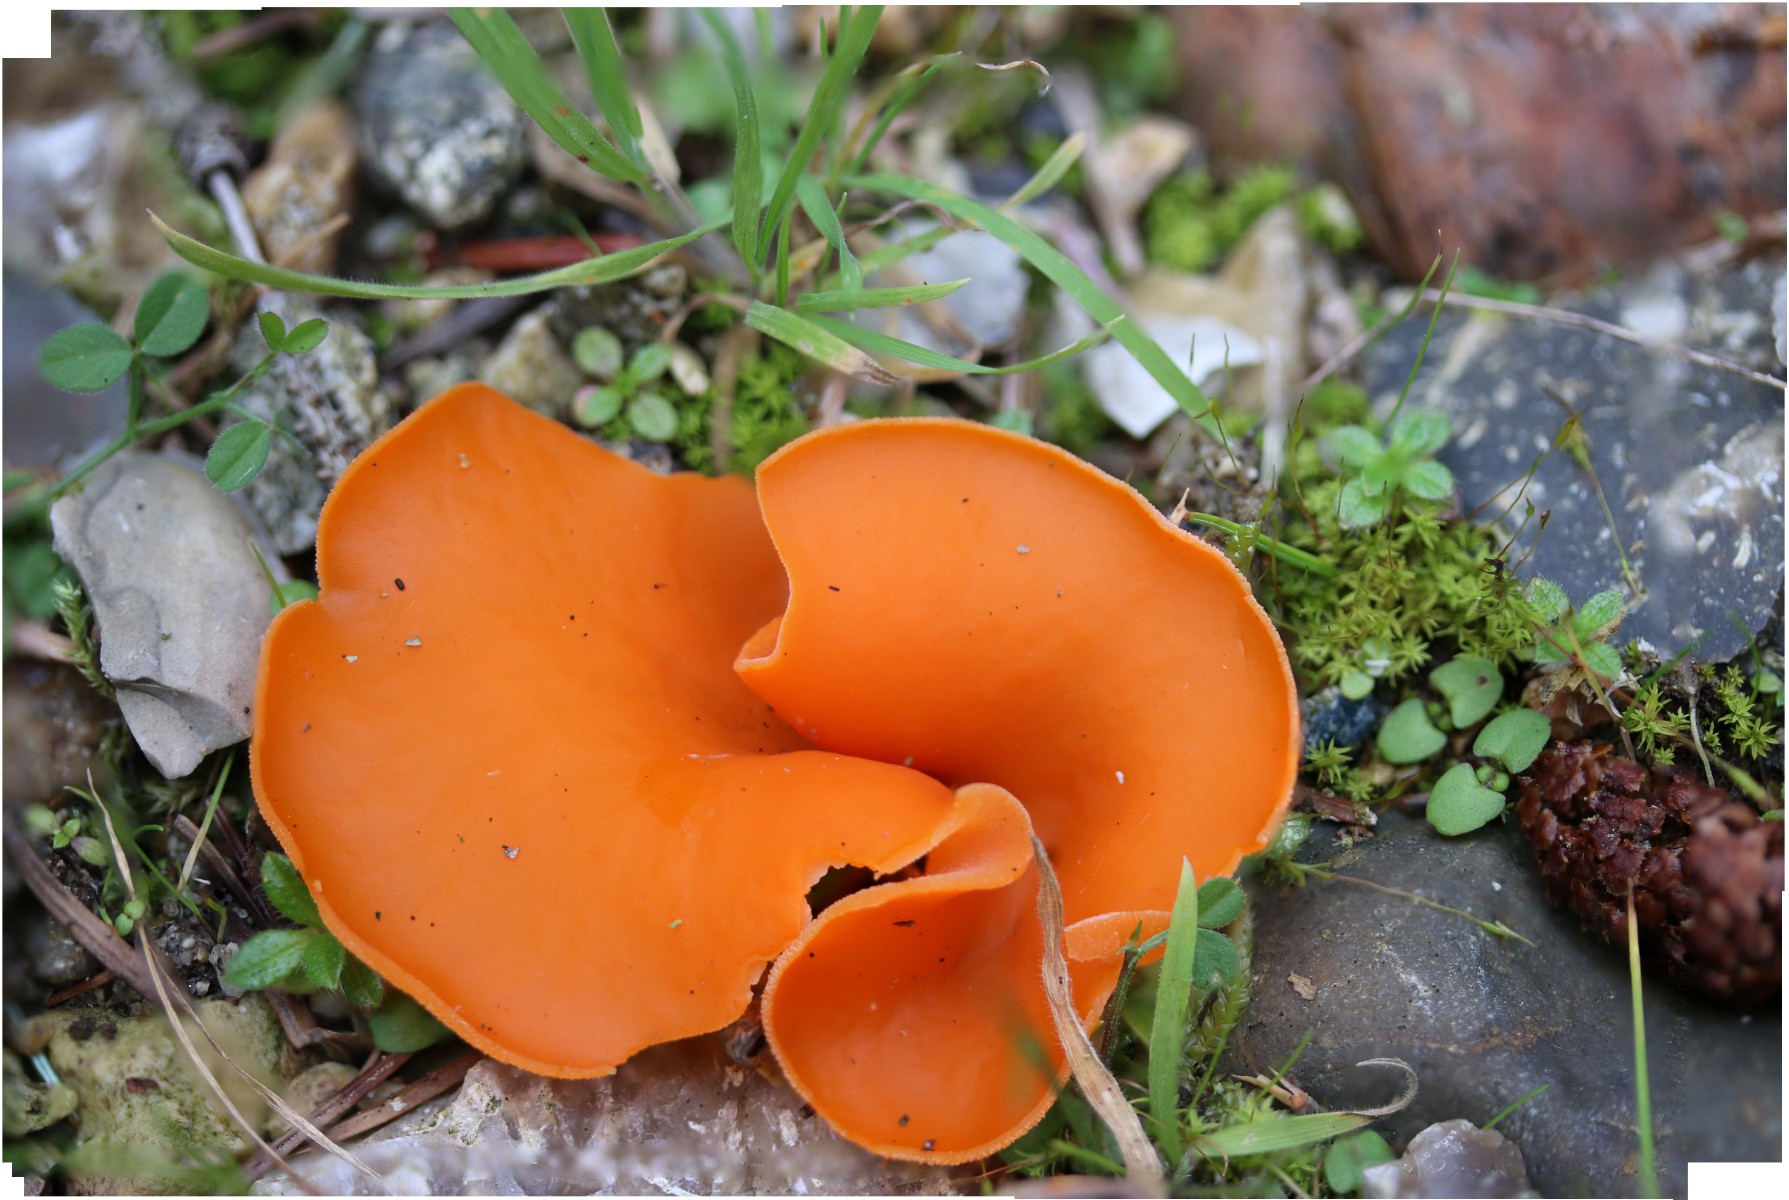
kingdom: Fungi
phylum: Ascomycota
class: Pezizomycetes
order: Pezizales
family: Pyronemataceae
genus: Aleuria
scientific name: Aleuria aurantia
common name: almindelig orangebæger
